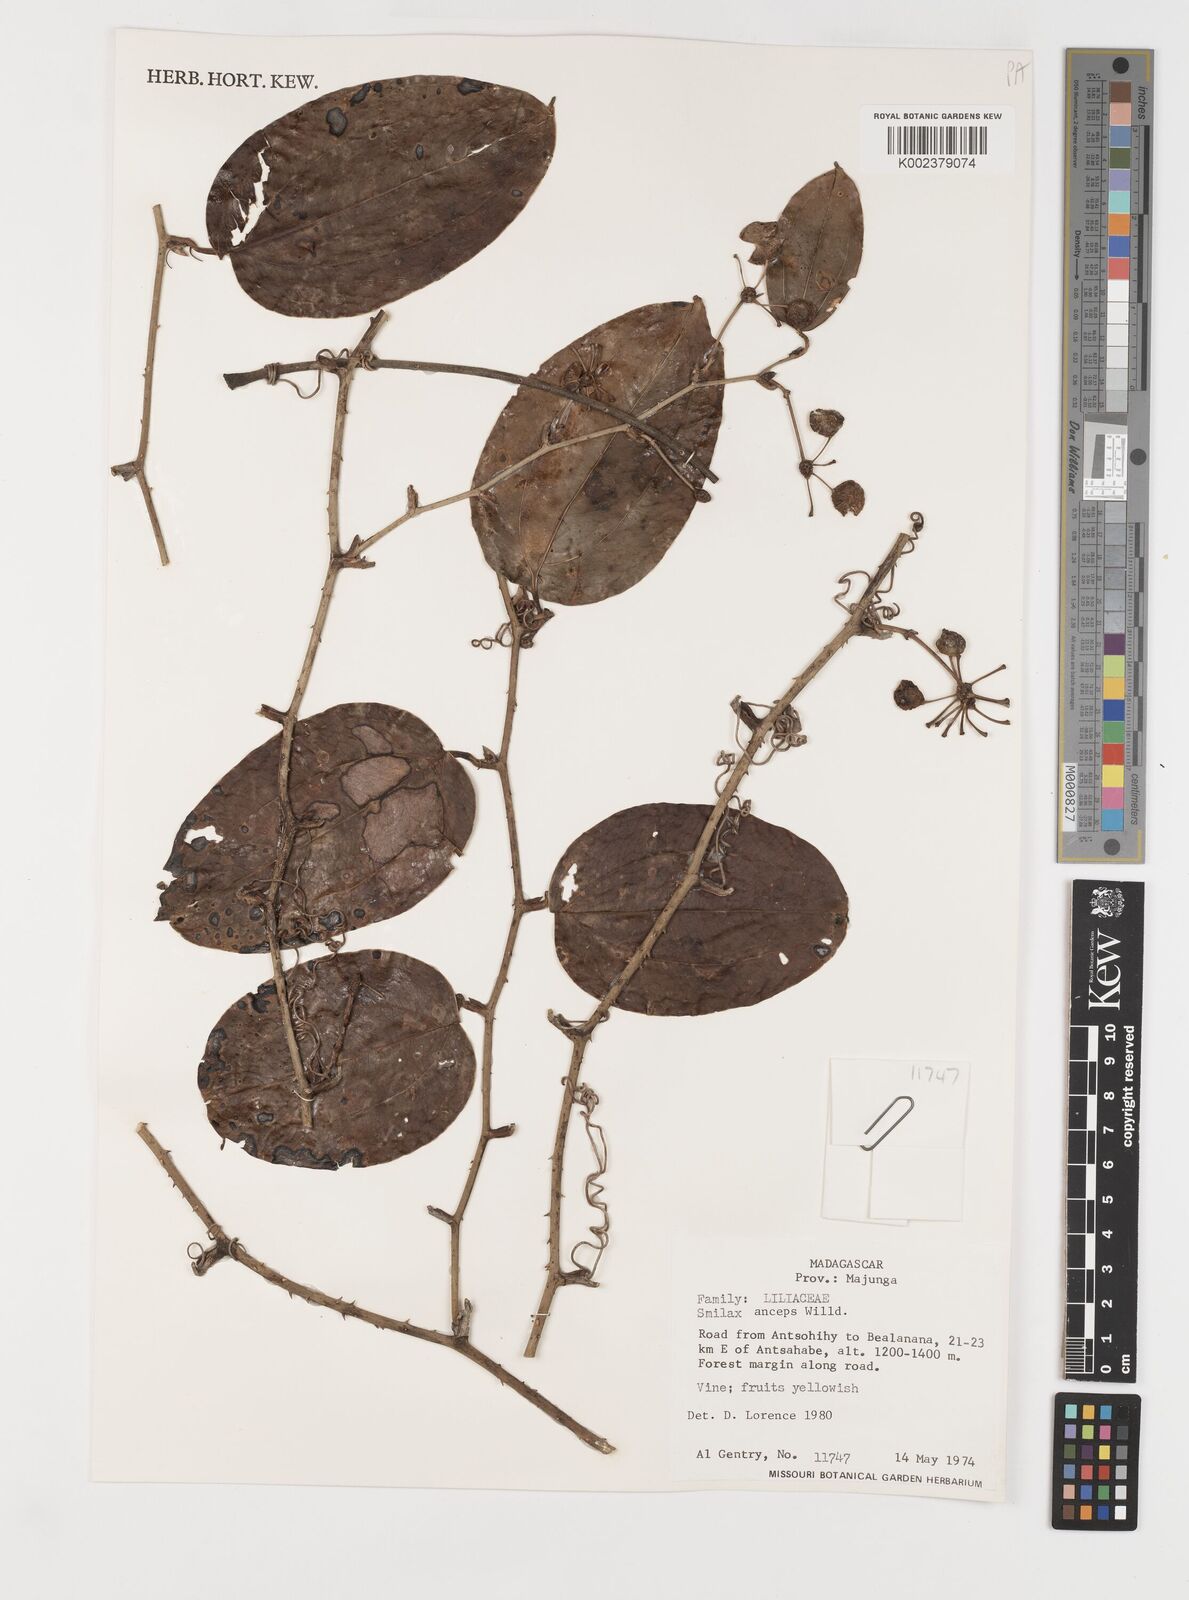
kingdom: Plantae
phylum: Tracheophyta
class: Liliopsida
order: Liliales
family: Smilacaceae
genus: Smilax
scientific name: Smilax anceps
